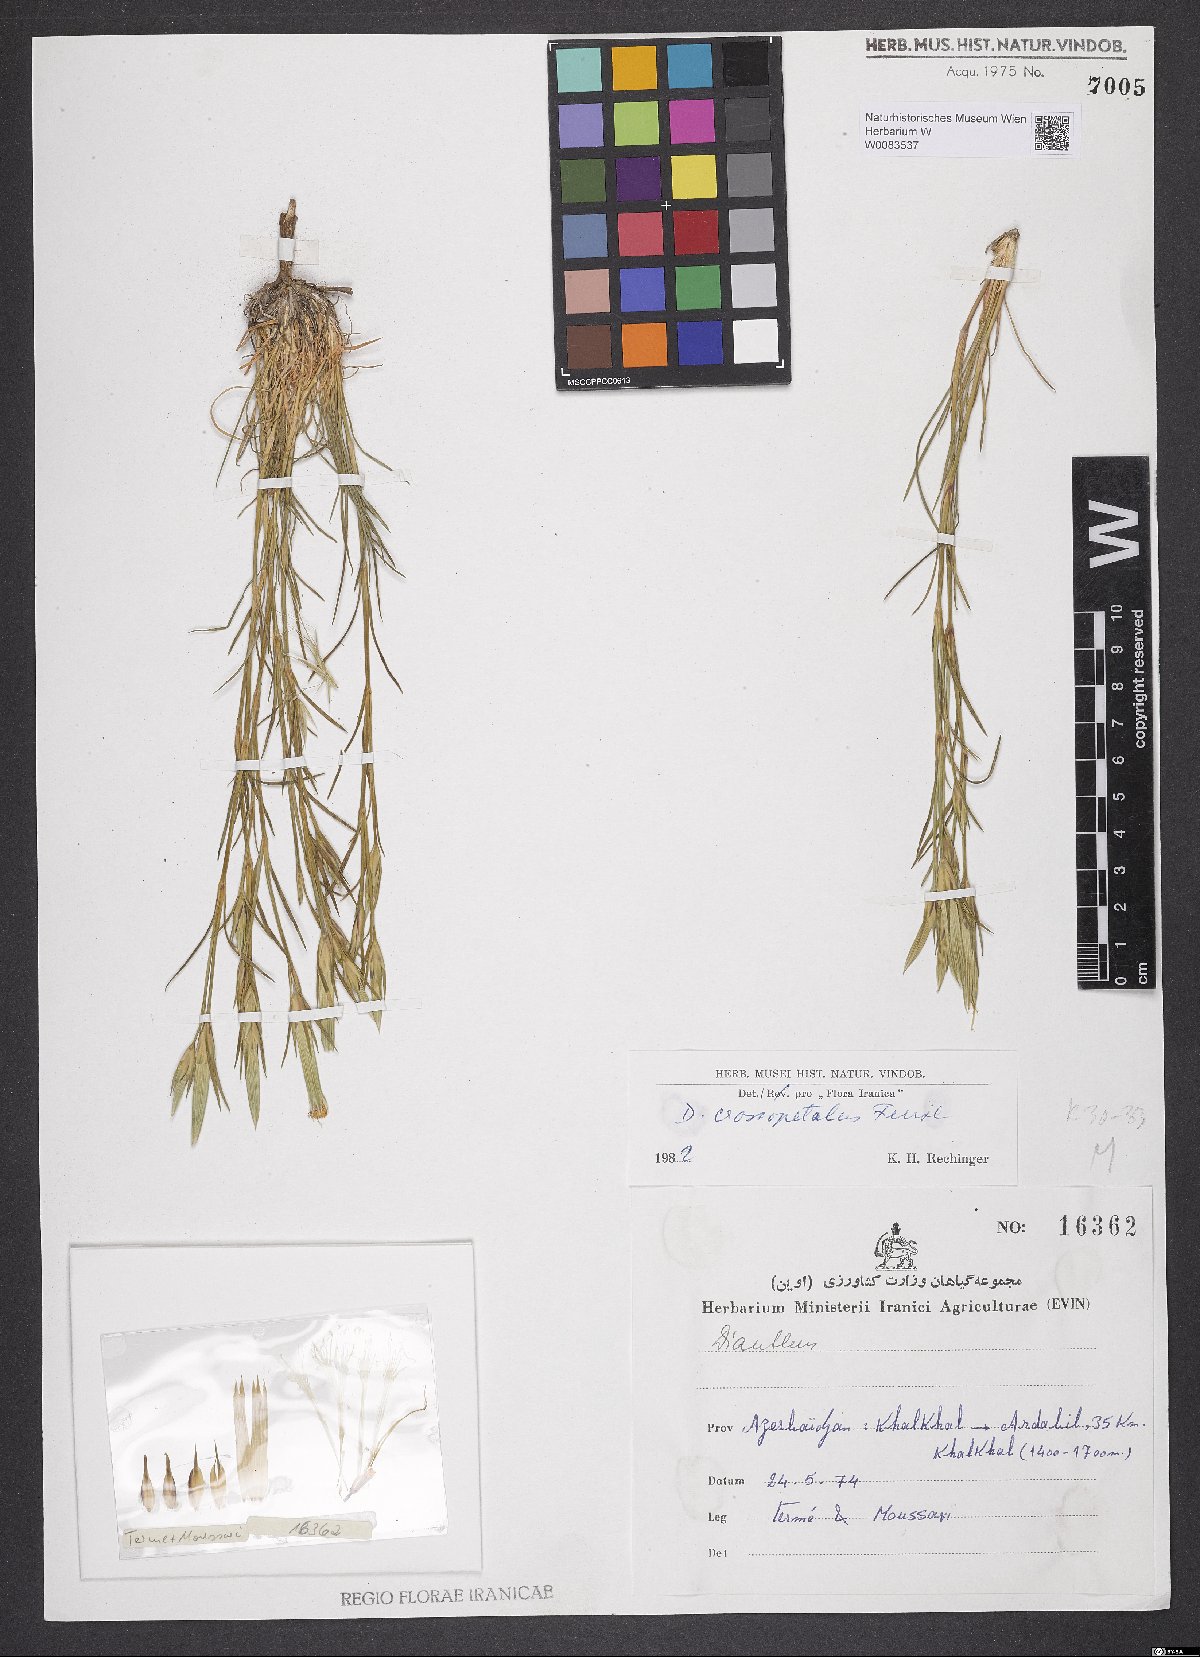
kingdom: Plantae
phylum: Tracheophyta
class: Magnoliopsida
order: Caryophyllales
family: Caryophyllaceae
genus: Dianthus
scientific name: Dianthus crossopetalus
